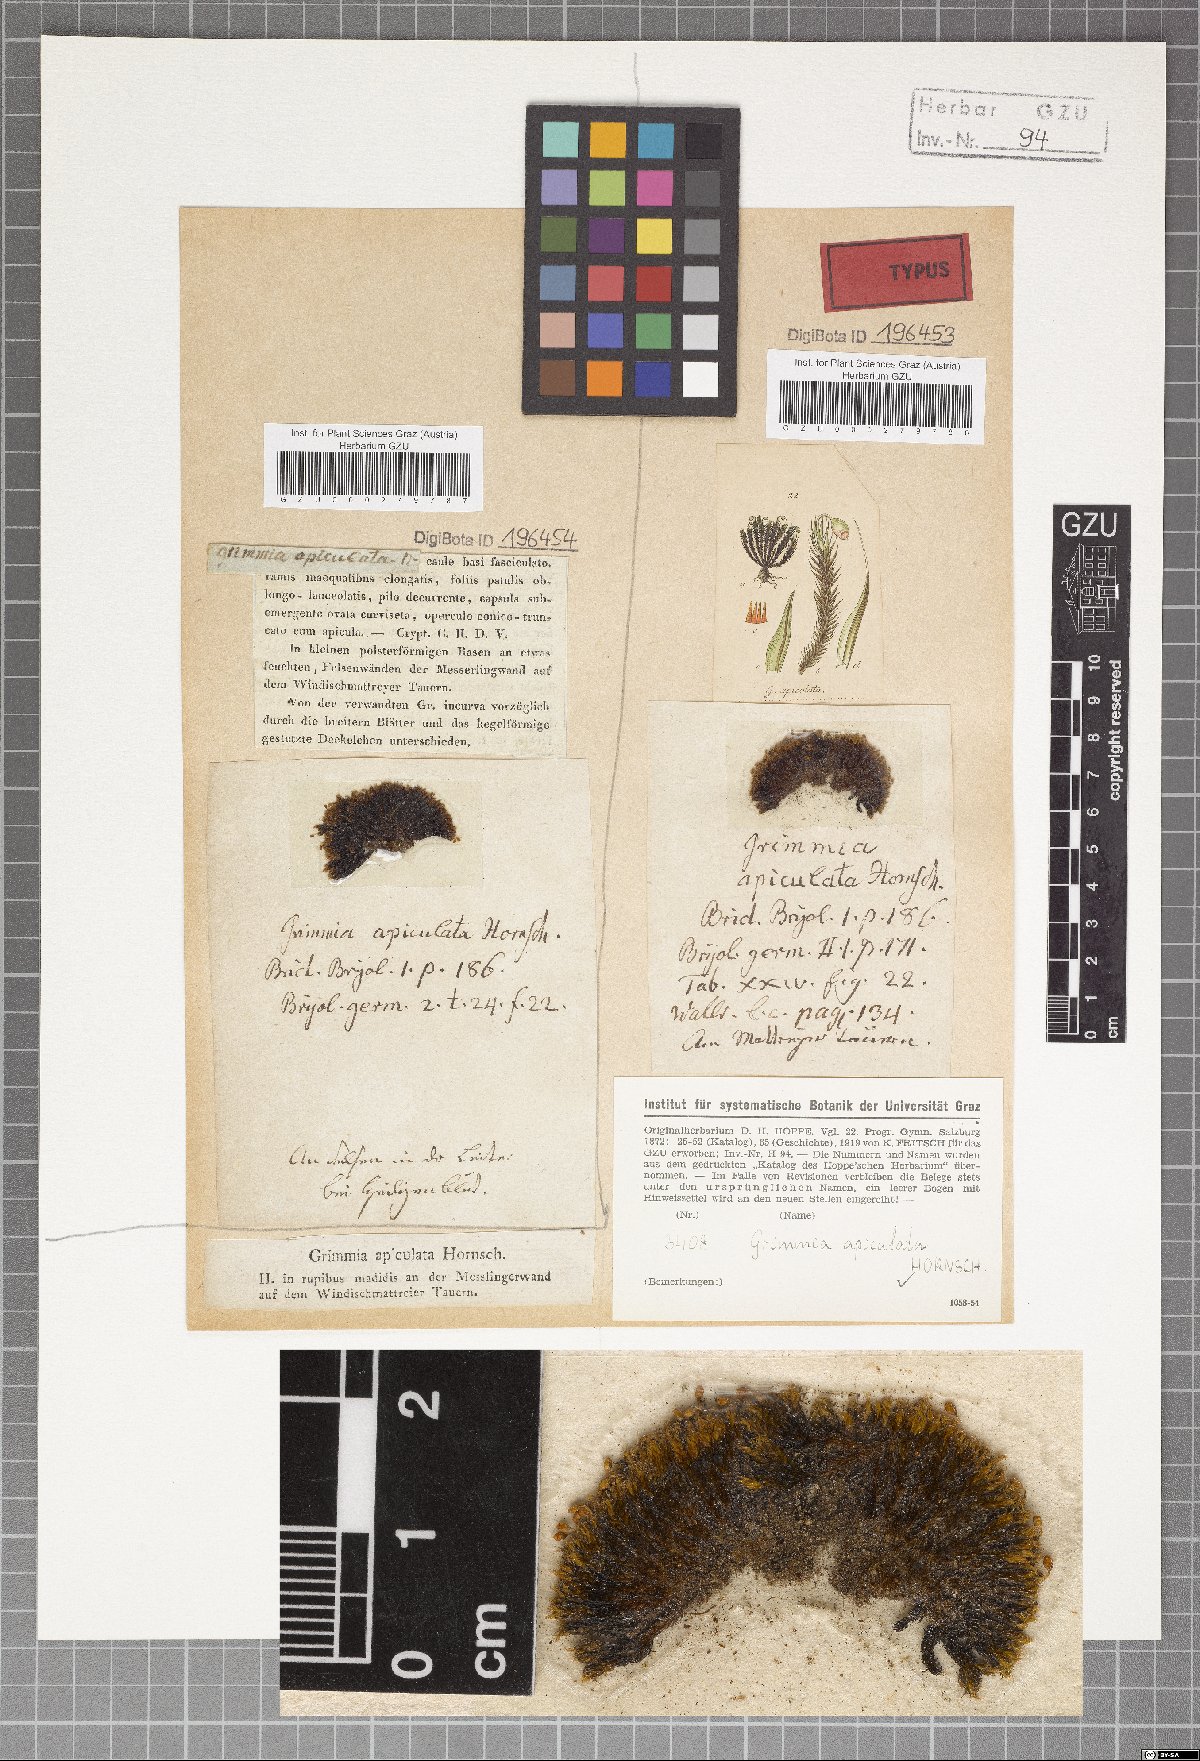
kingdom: Plantae
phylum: Bryophyta
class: Bryopsida
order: Grimmiales
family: Grimmiaceae
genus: Grimmia
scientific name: Grimmia fuscolutea
